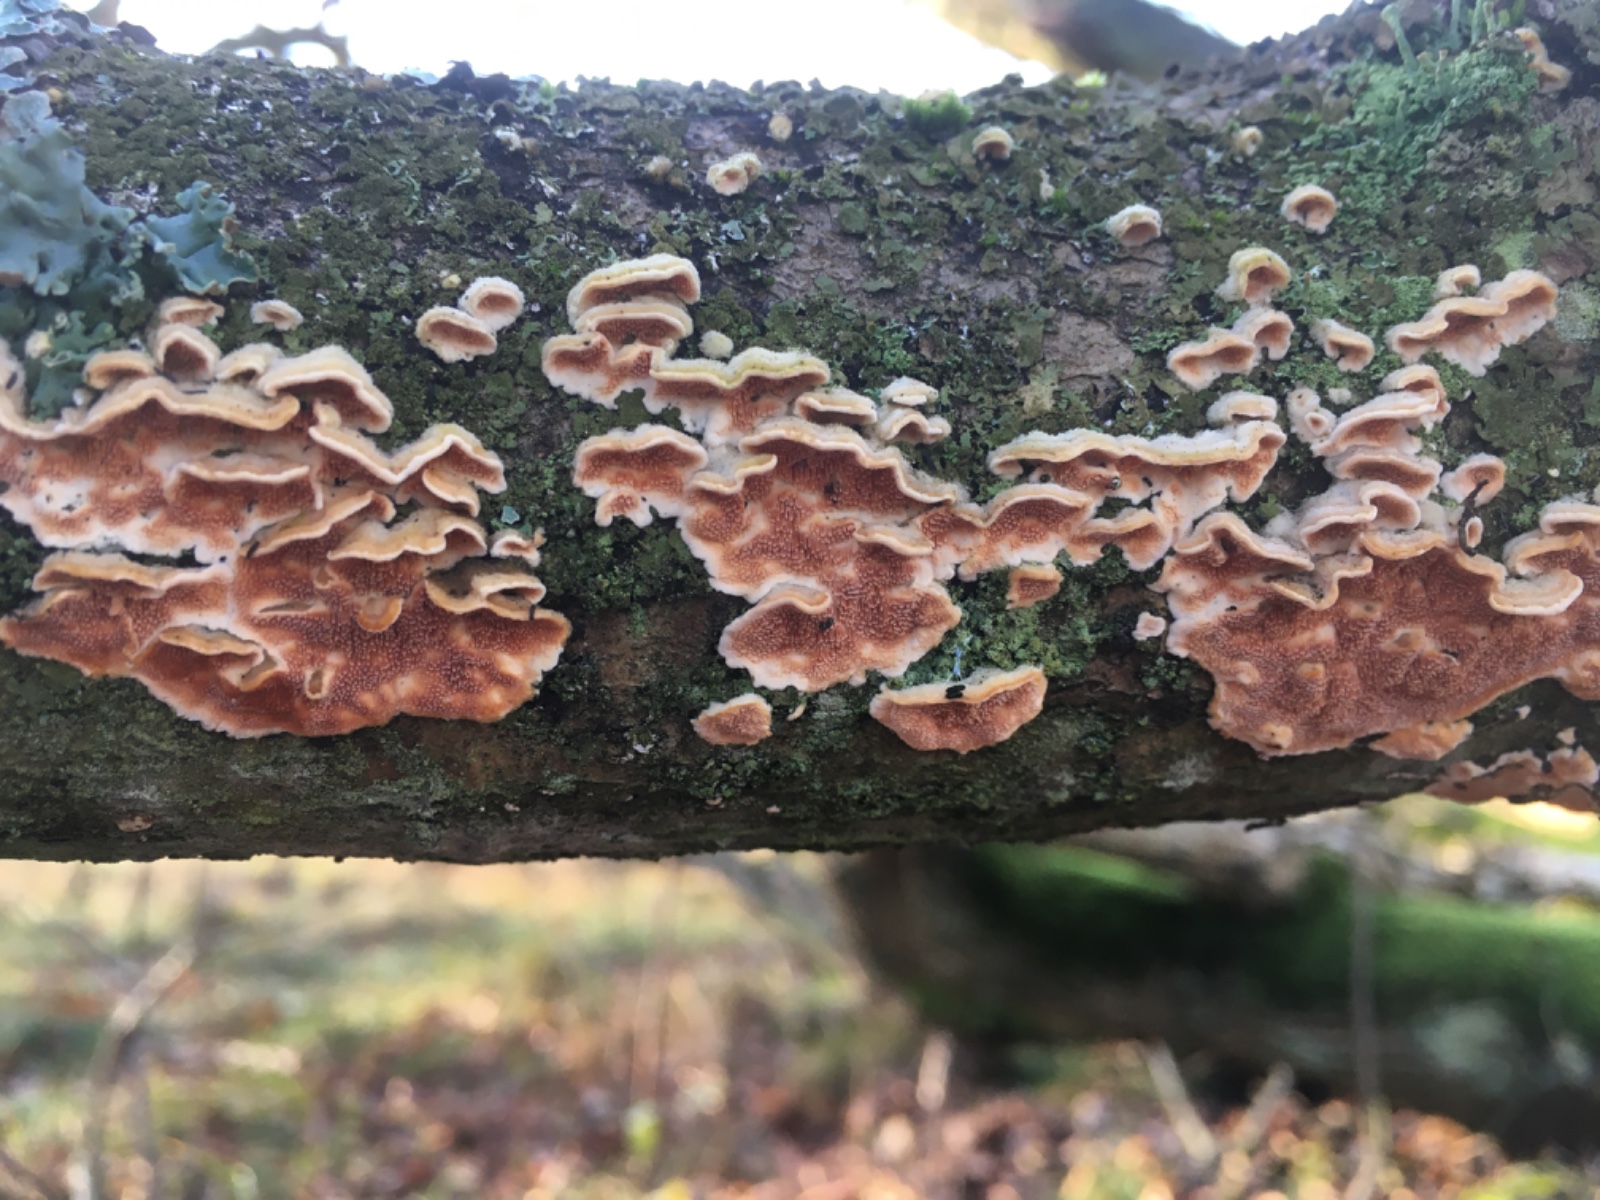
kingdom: Fungi
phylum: Basidiomycota
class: Agaricomycetes
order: Polyporales
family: Steccherinaceae
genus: Steccherinum
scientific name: Steccherinum ochraceum
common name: almindelig skønpig
